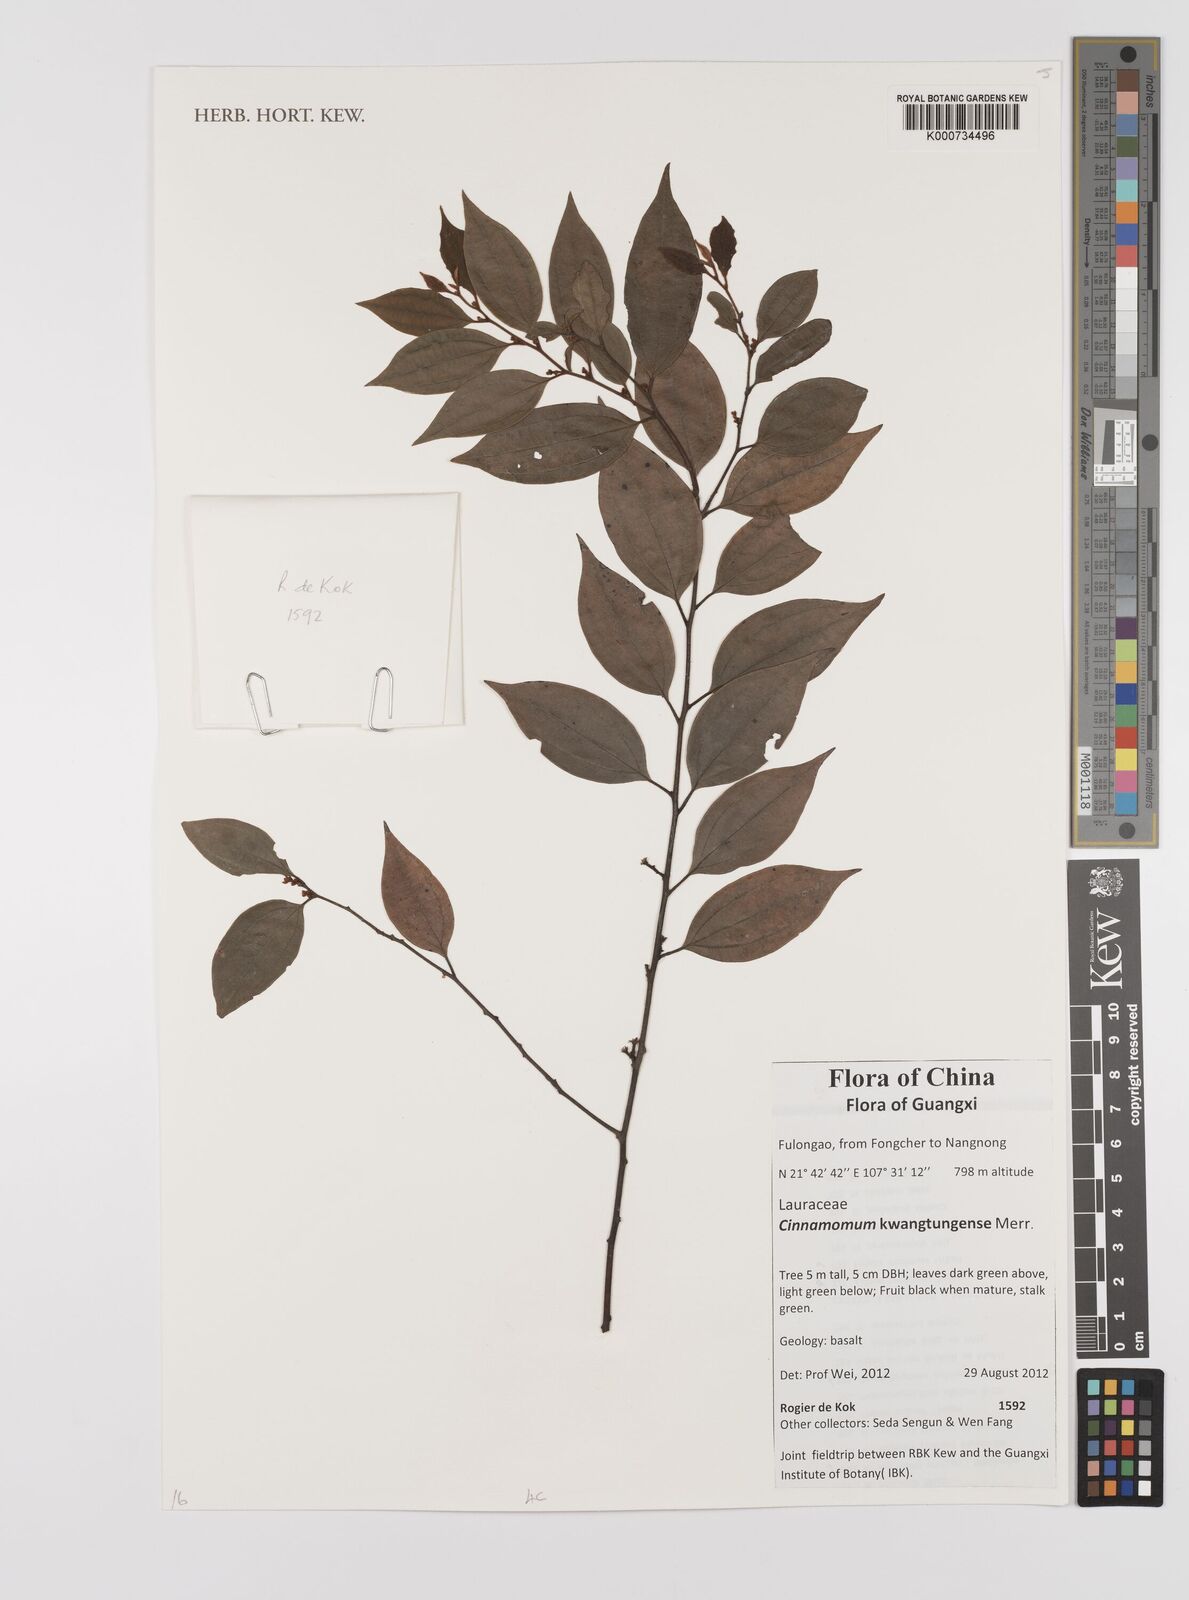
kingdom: Plantae
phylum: Tracheophyta
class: Magnoliopsida
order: Laurales
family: Lauraceae
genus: Cinnamomum
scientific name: Cinnamomum kwangtungense
